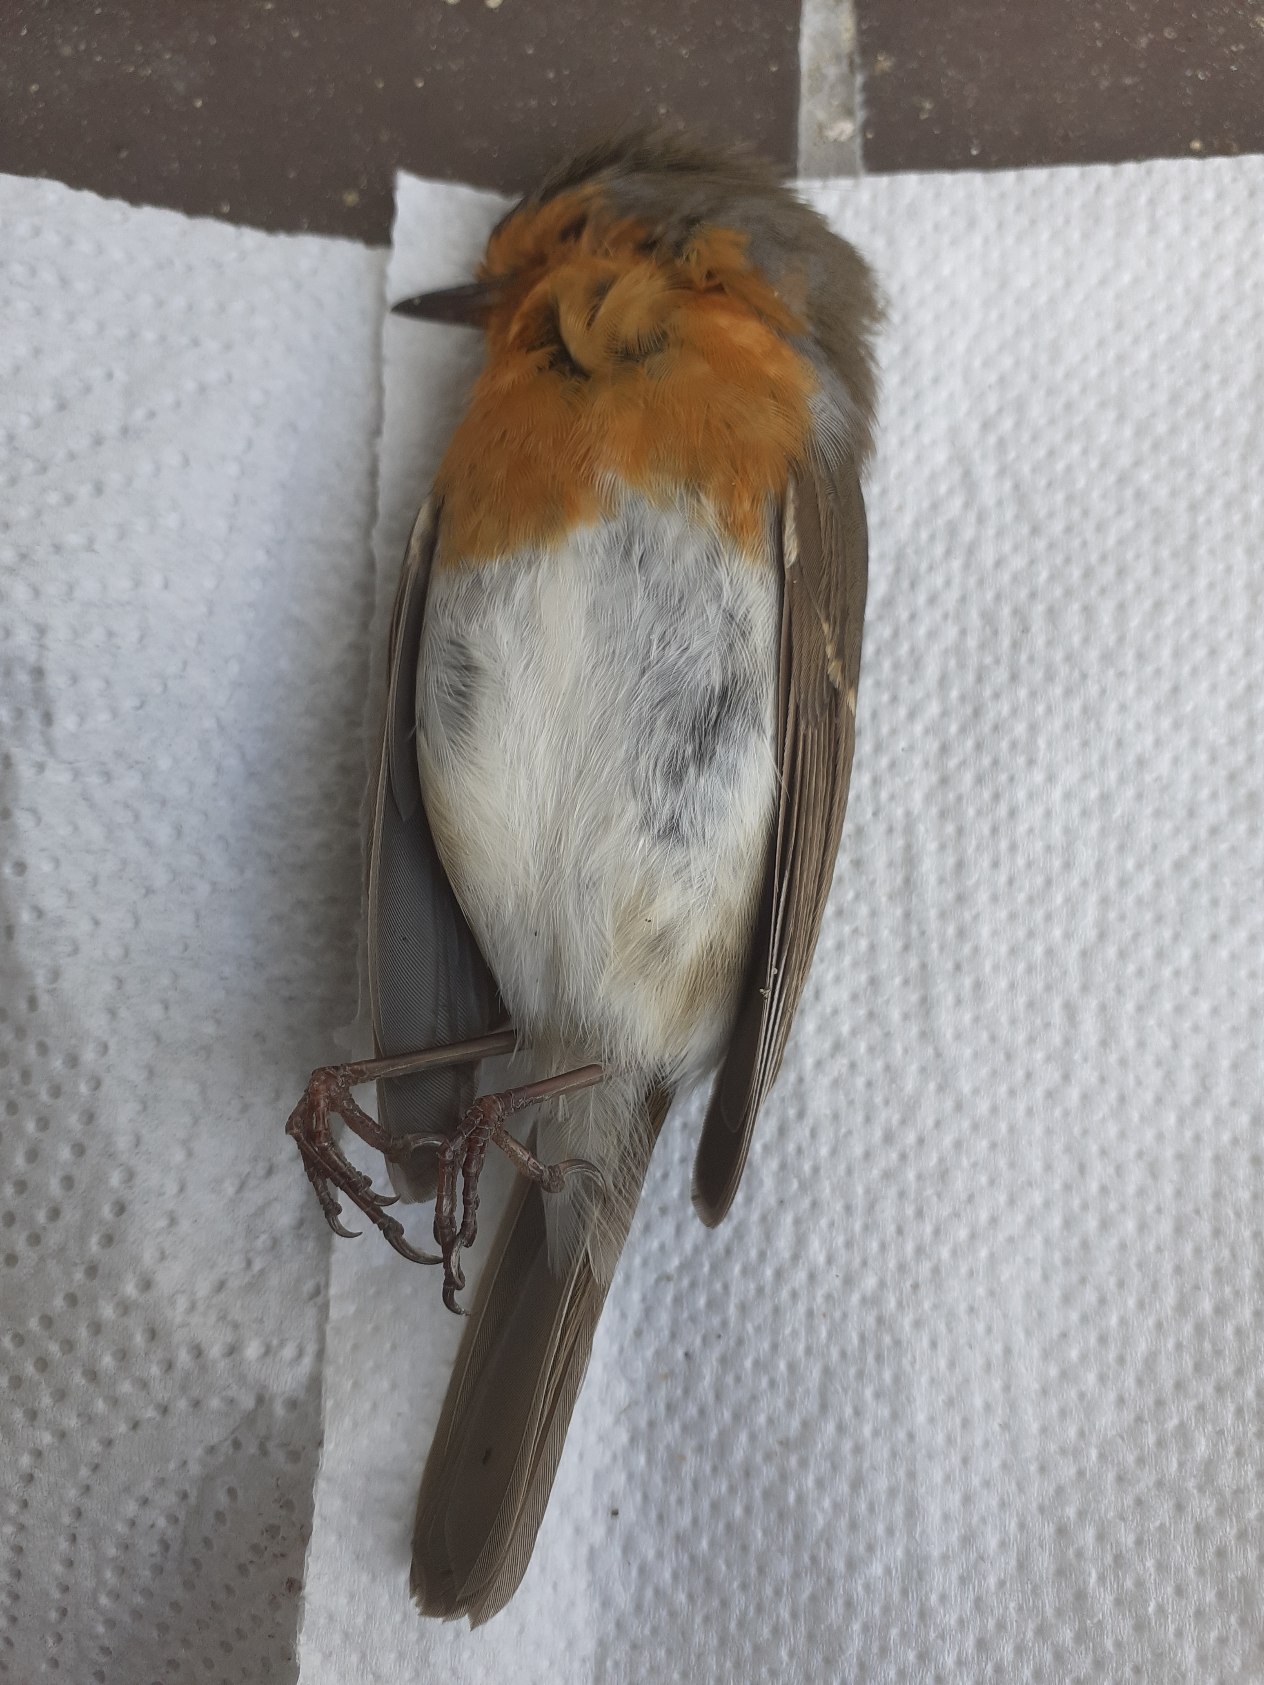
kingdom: Animalia
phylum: Chordata
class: Aves
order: Passeriformes
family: Muscicapidae
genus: Erithacus
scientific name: Erithacus rubecula
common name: Rødhals/rødkælk
